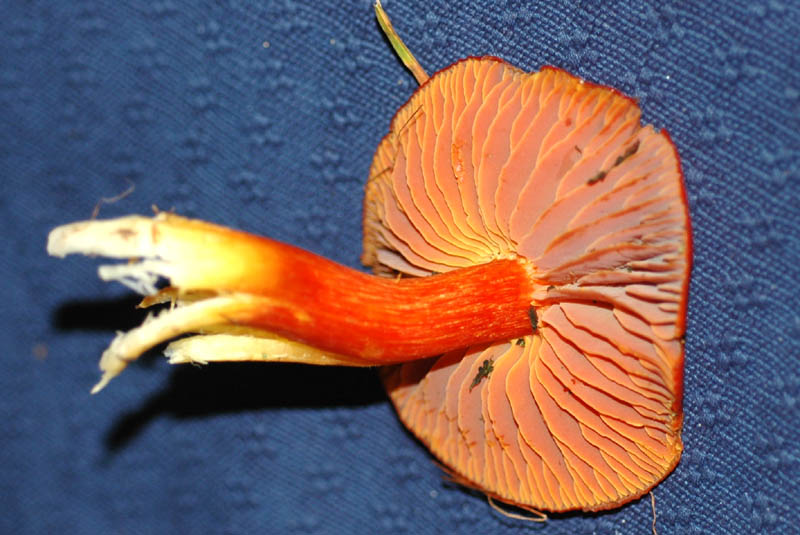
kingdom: Fungi
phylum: Basidiomycota
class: Agaricomycetes
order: Agaricales
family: Hygrophoraceae
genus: Hygrocybe
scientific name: Hygrocybe punicea
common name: skarlagen-vokshat
